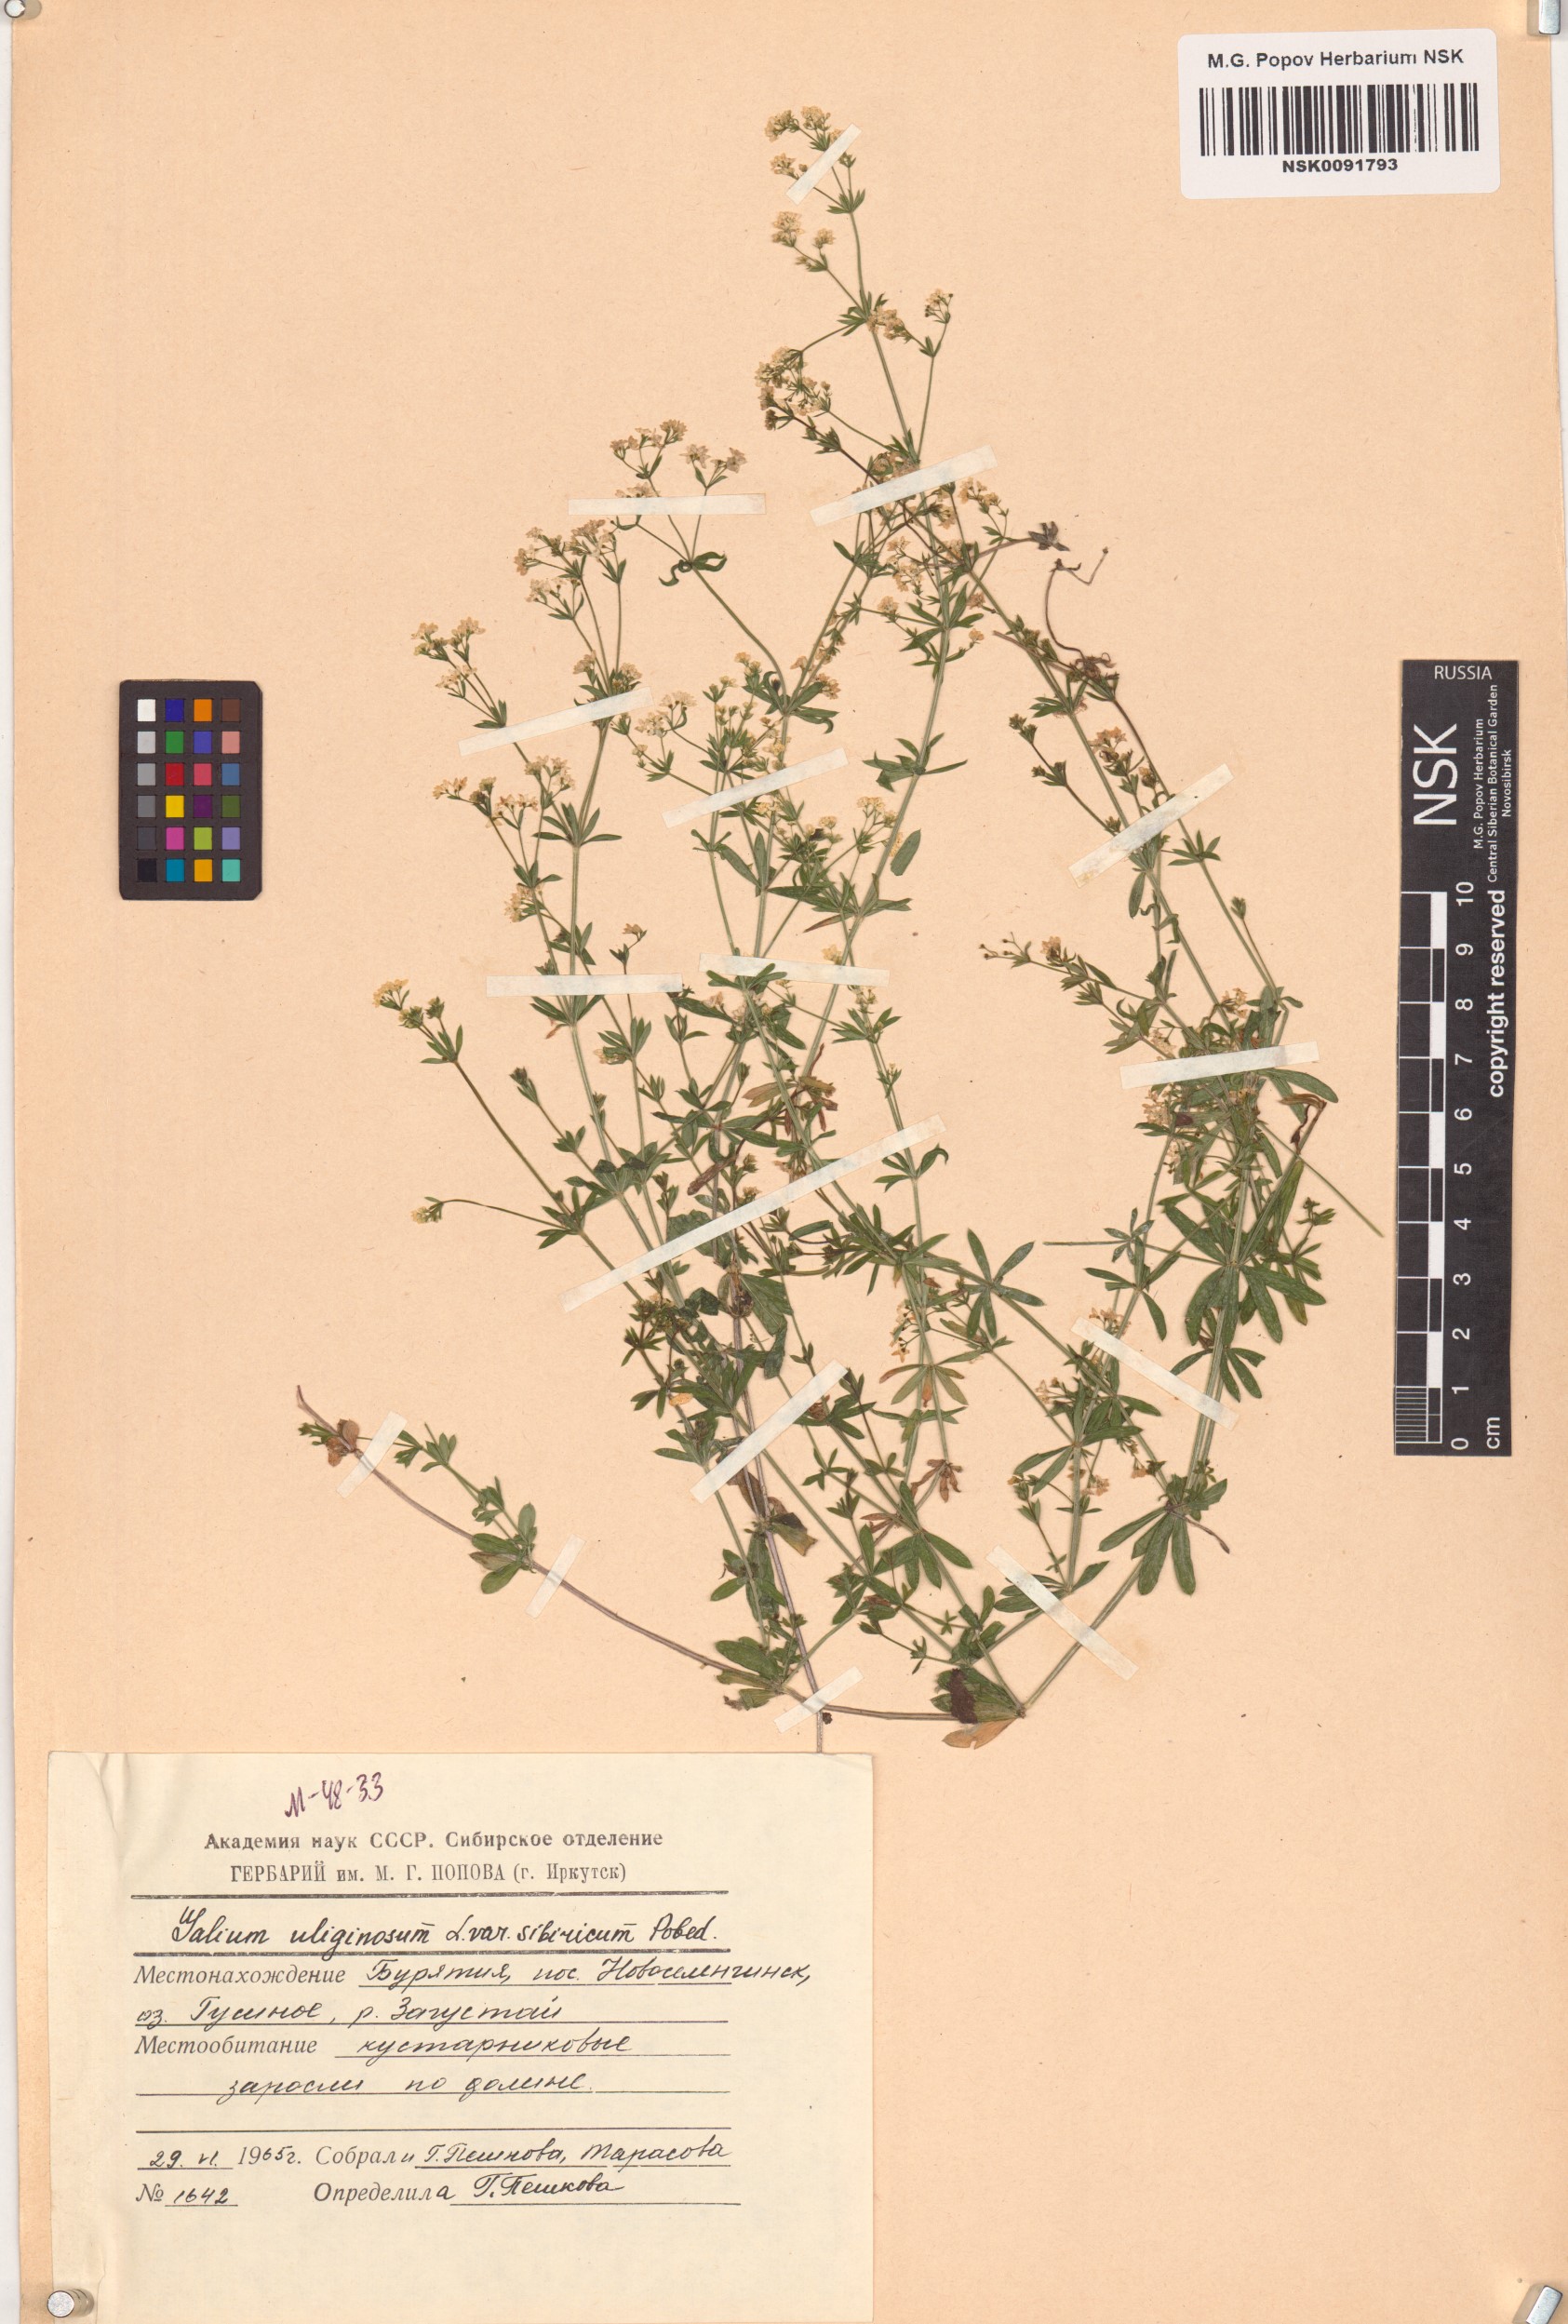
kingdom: Plantae
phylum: Tracheophyta
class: Magnoliopsida
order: Gentianales
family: Rubiaceae
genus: Galium
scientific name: Galium uliginosum
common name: Fen bedstraw
